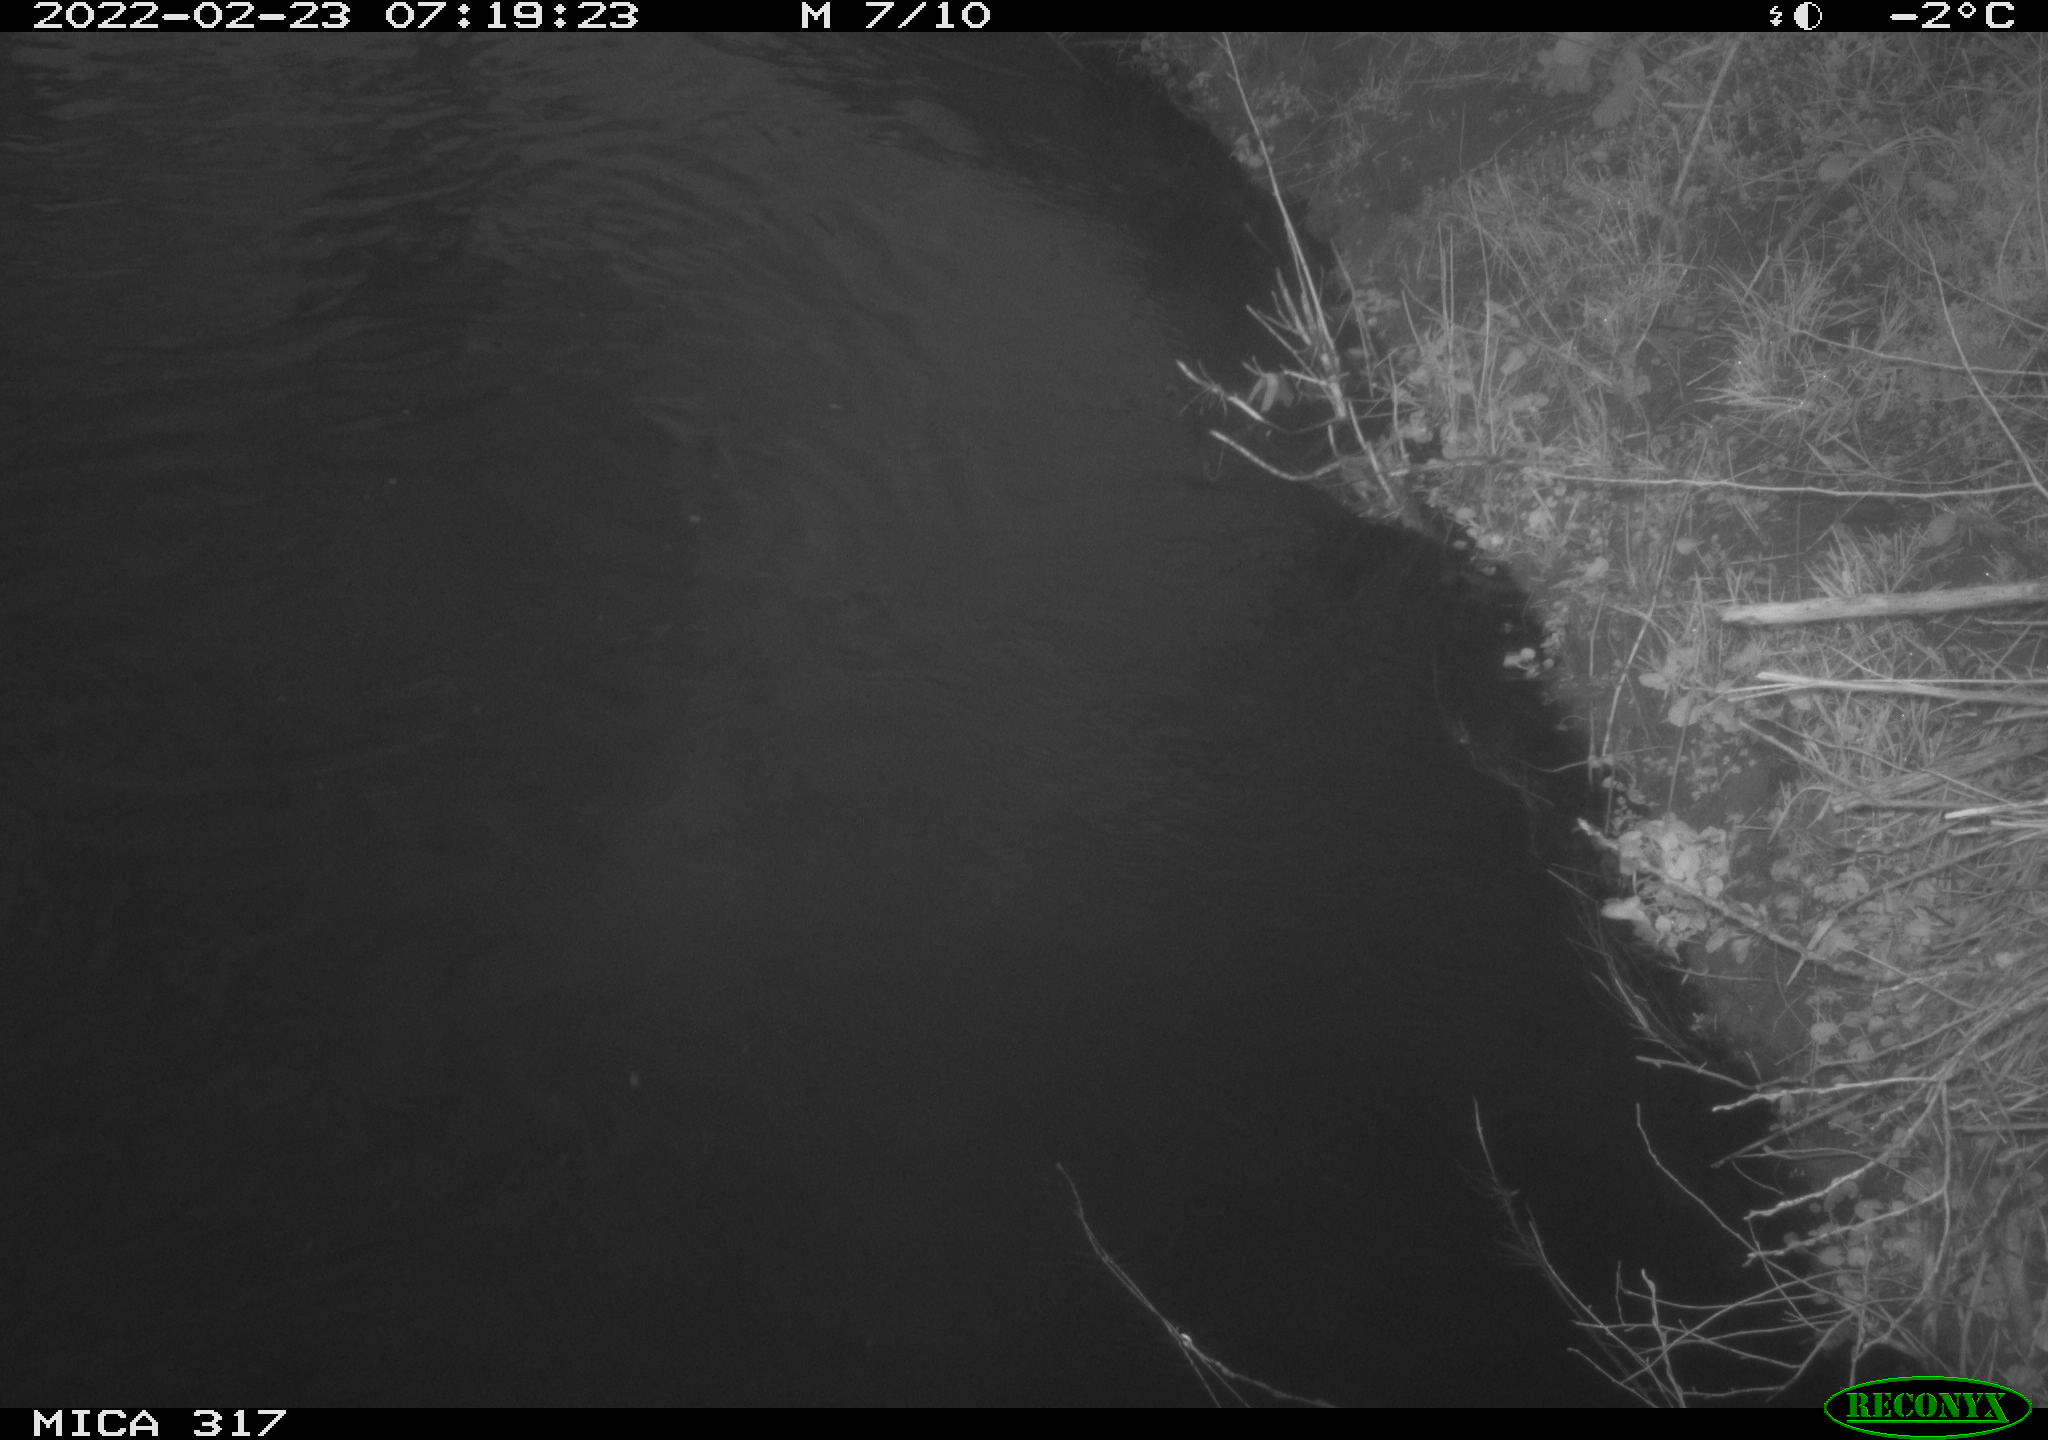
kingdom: Animalia
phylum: Chordata
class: Aves
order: Anseriformes
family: Anatidae
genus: Anas
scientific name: Anas platyrhynchos
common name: Mallard
